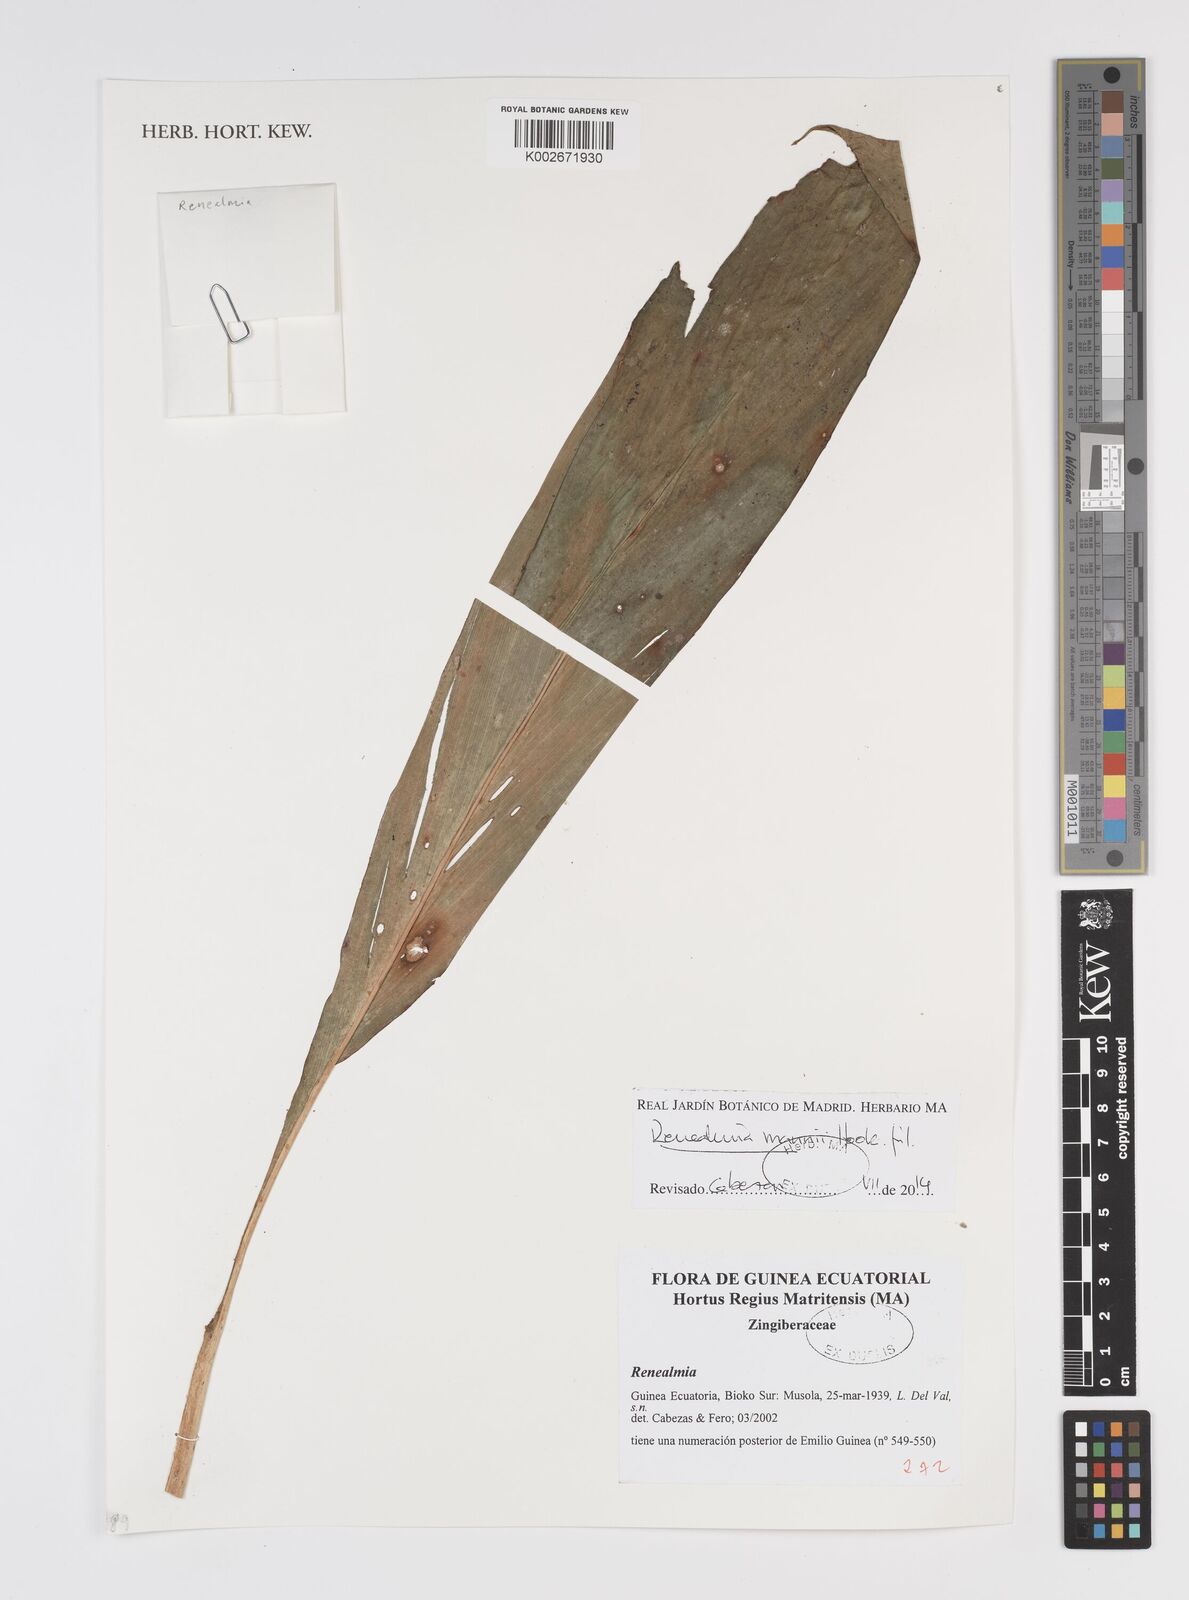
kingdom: Plantae
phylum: Tracheophyta
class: Liliopsida
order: Zingiberales
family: Zingiberaceae
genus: Renealmia
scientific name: Renealmia mannii
